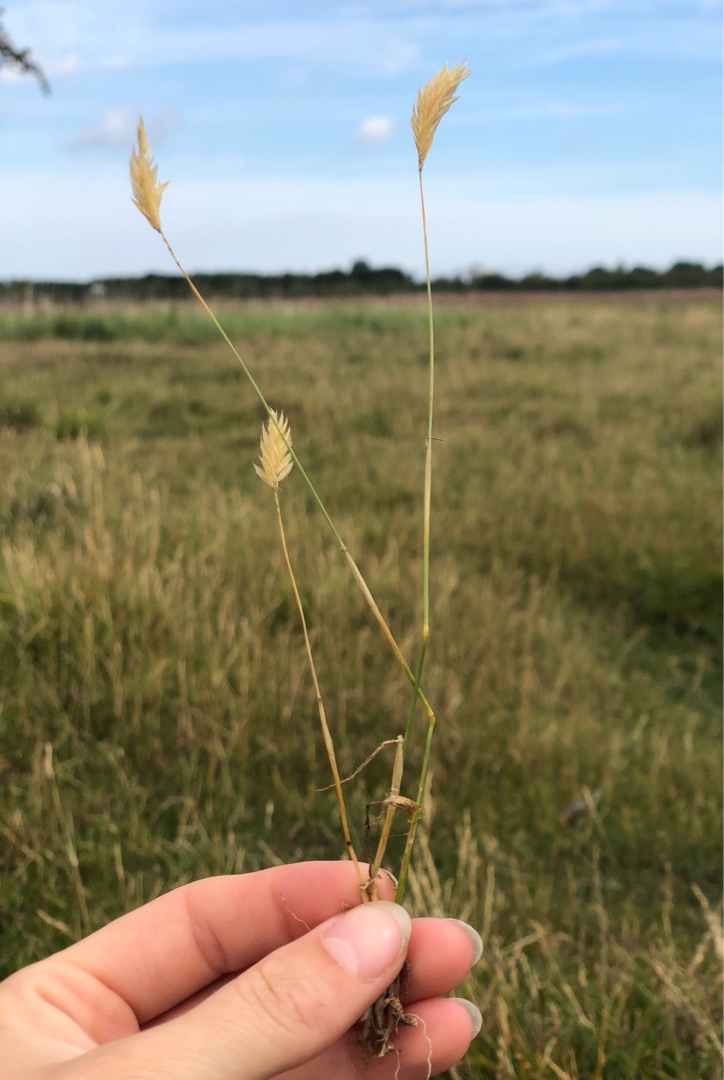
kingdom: Plantae
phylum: Tracheophyta
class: Liliopsida
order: Poales
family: Poaceae
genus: Anthoxanthum
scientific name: Anthoxanthum odoratum
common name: Vellugtende gulaks
